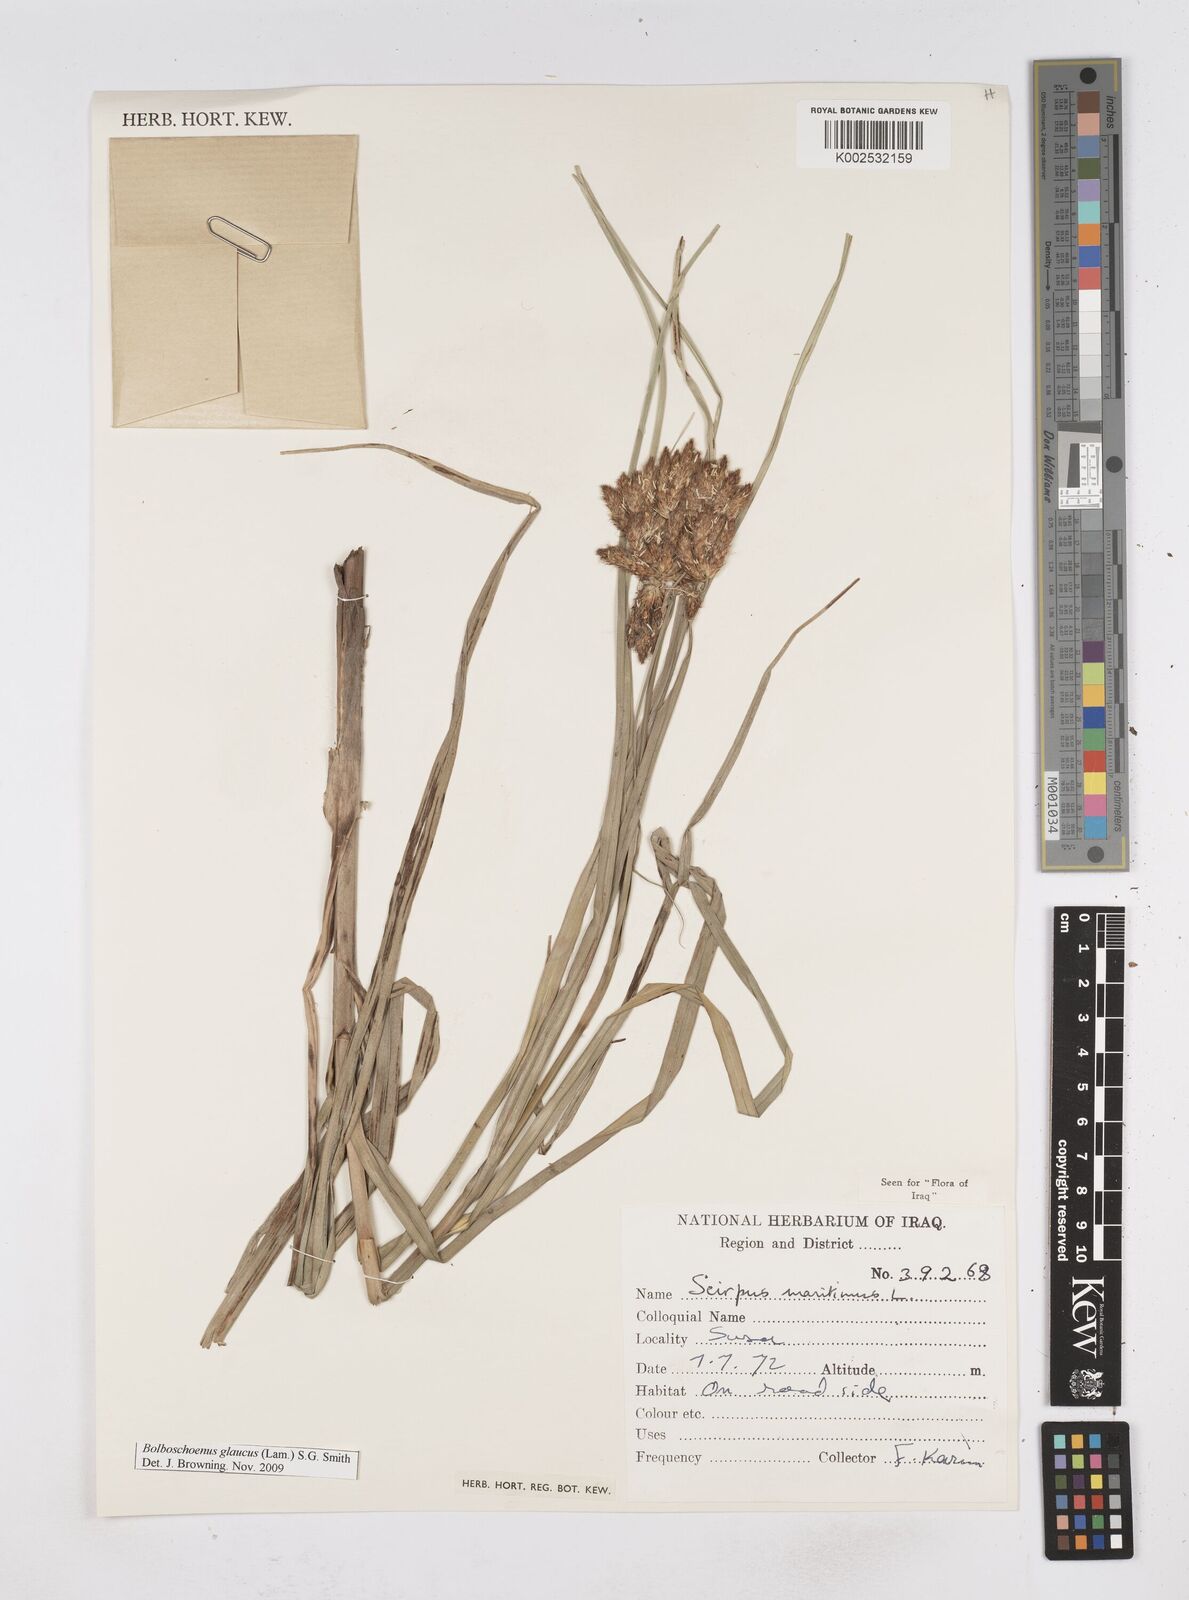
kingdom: Plantae
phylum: Tracheophyta
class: Liliopsida
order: Poales
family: Cyperaceae
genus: Bolboschoenus
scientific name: Bolboschoenus maritimus
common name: Sea club-rush
